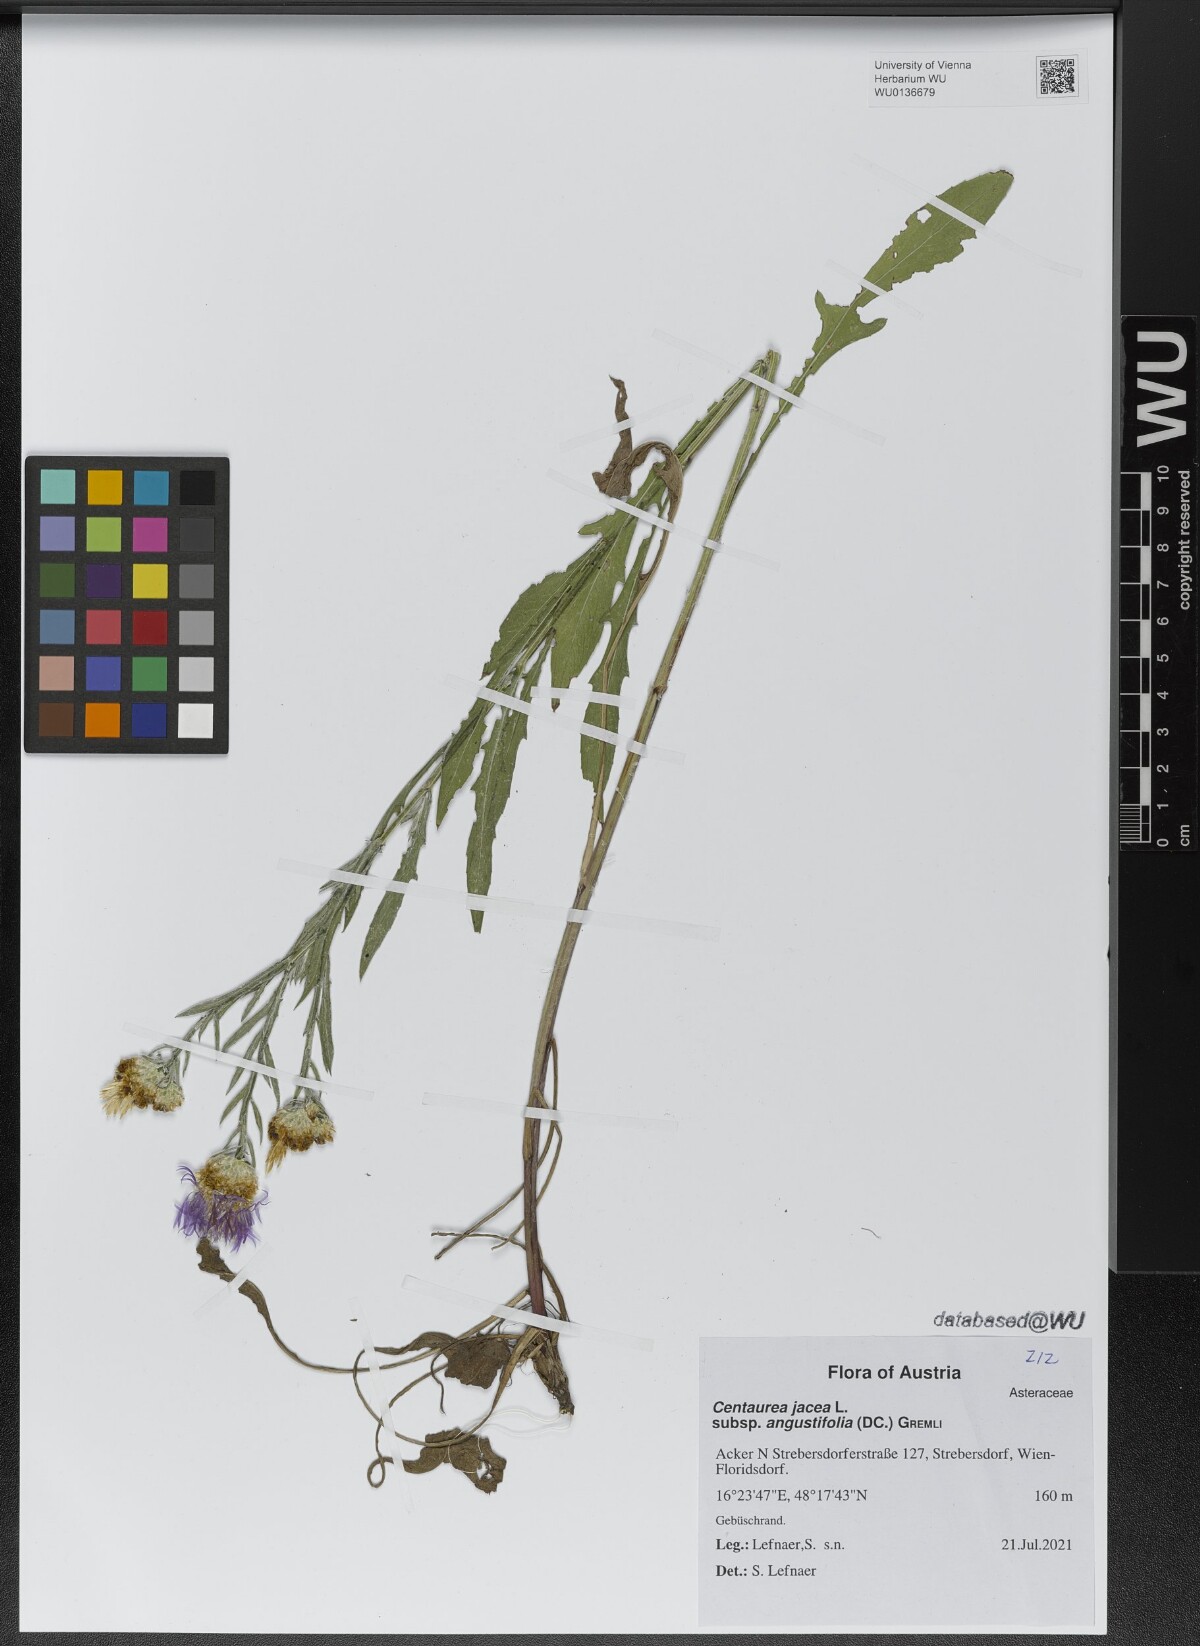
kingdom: Plantae
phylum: Tracheophyta
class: Magnoliopsida
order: Asterales
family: Asteraceae
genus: Centaurea
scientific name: Centaurea pannonica
